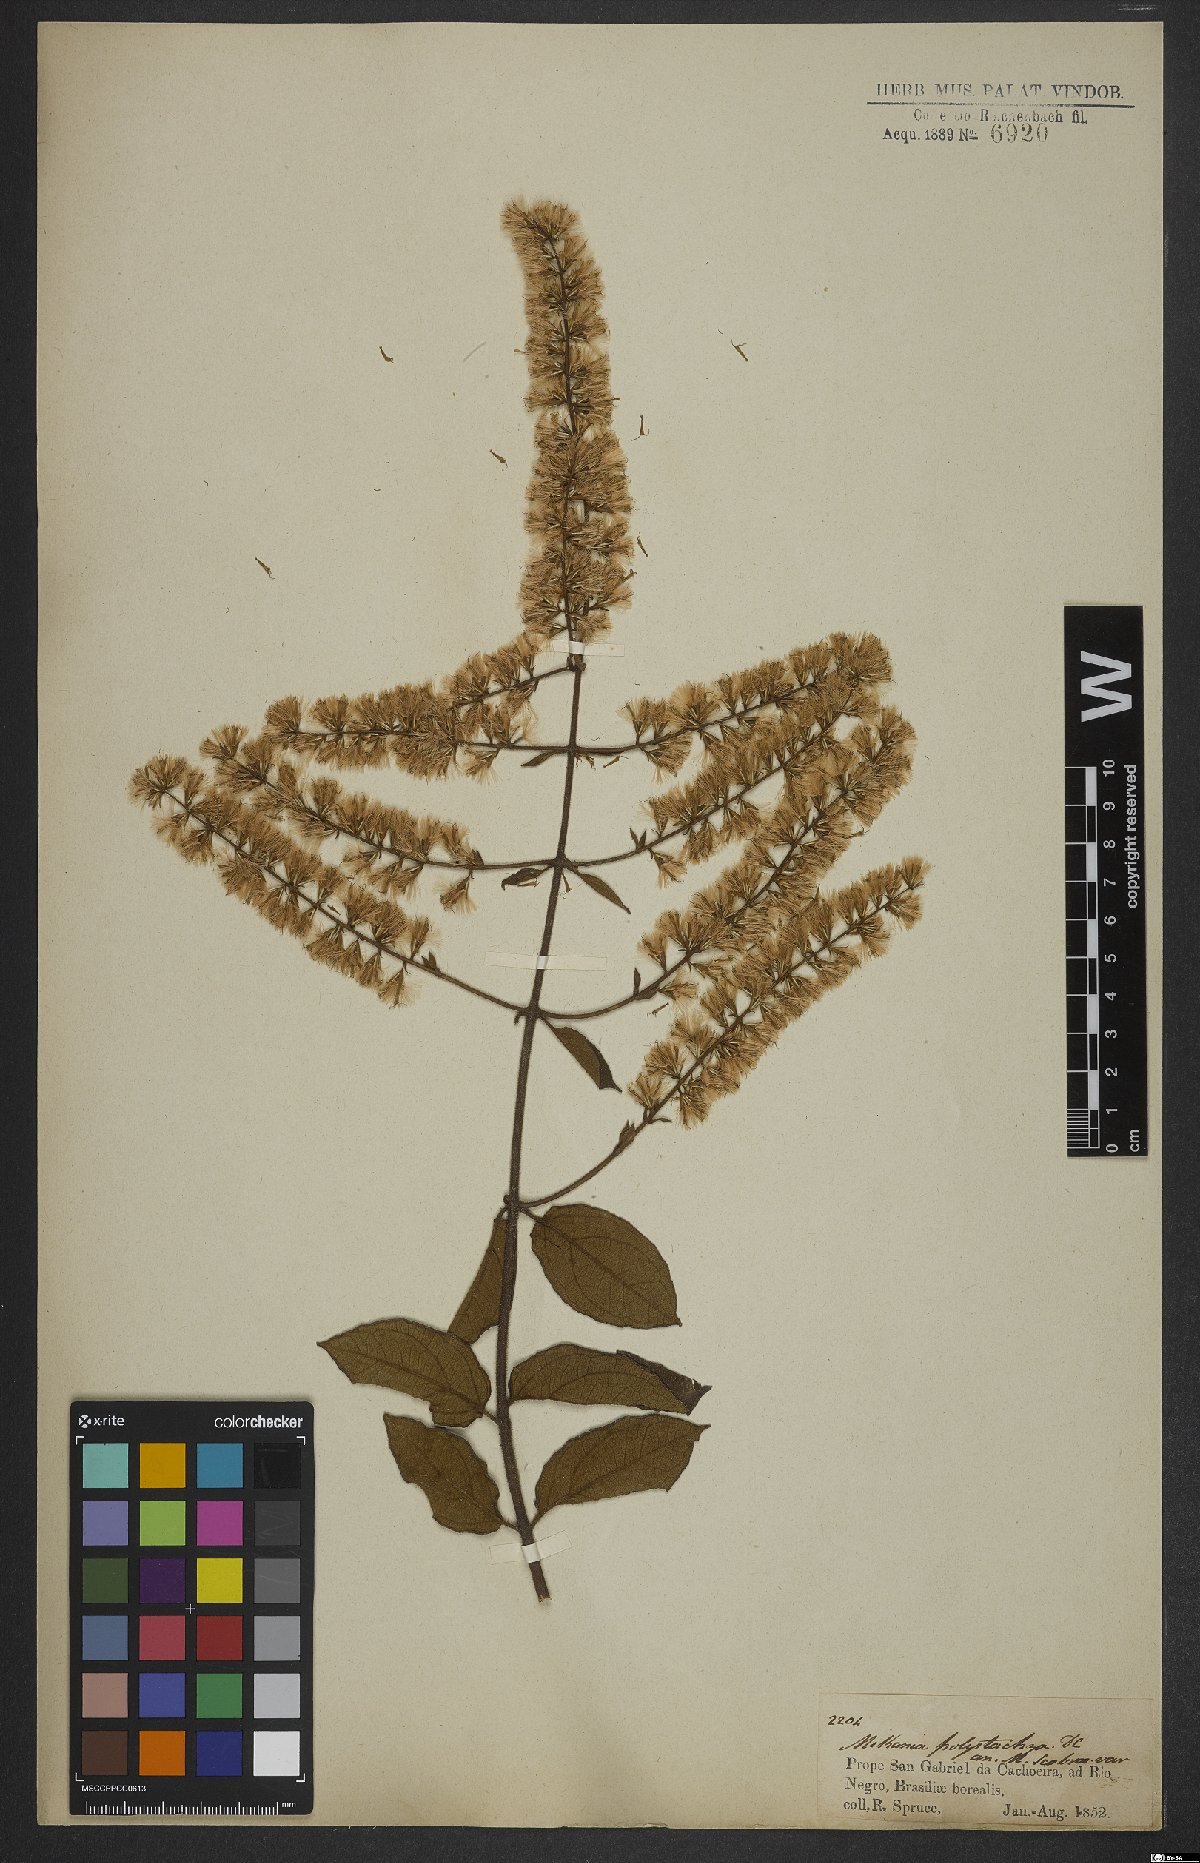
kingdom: Plantae
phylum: Tracheophyta
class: Magnoliopsida
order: Asterales
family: Asteraceae
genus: Mikania
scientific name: Mikania psilostachya
